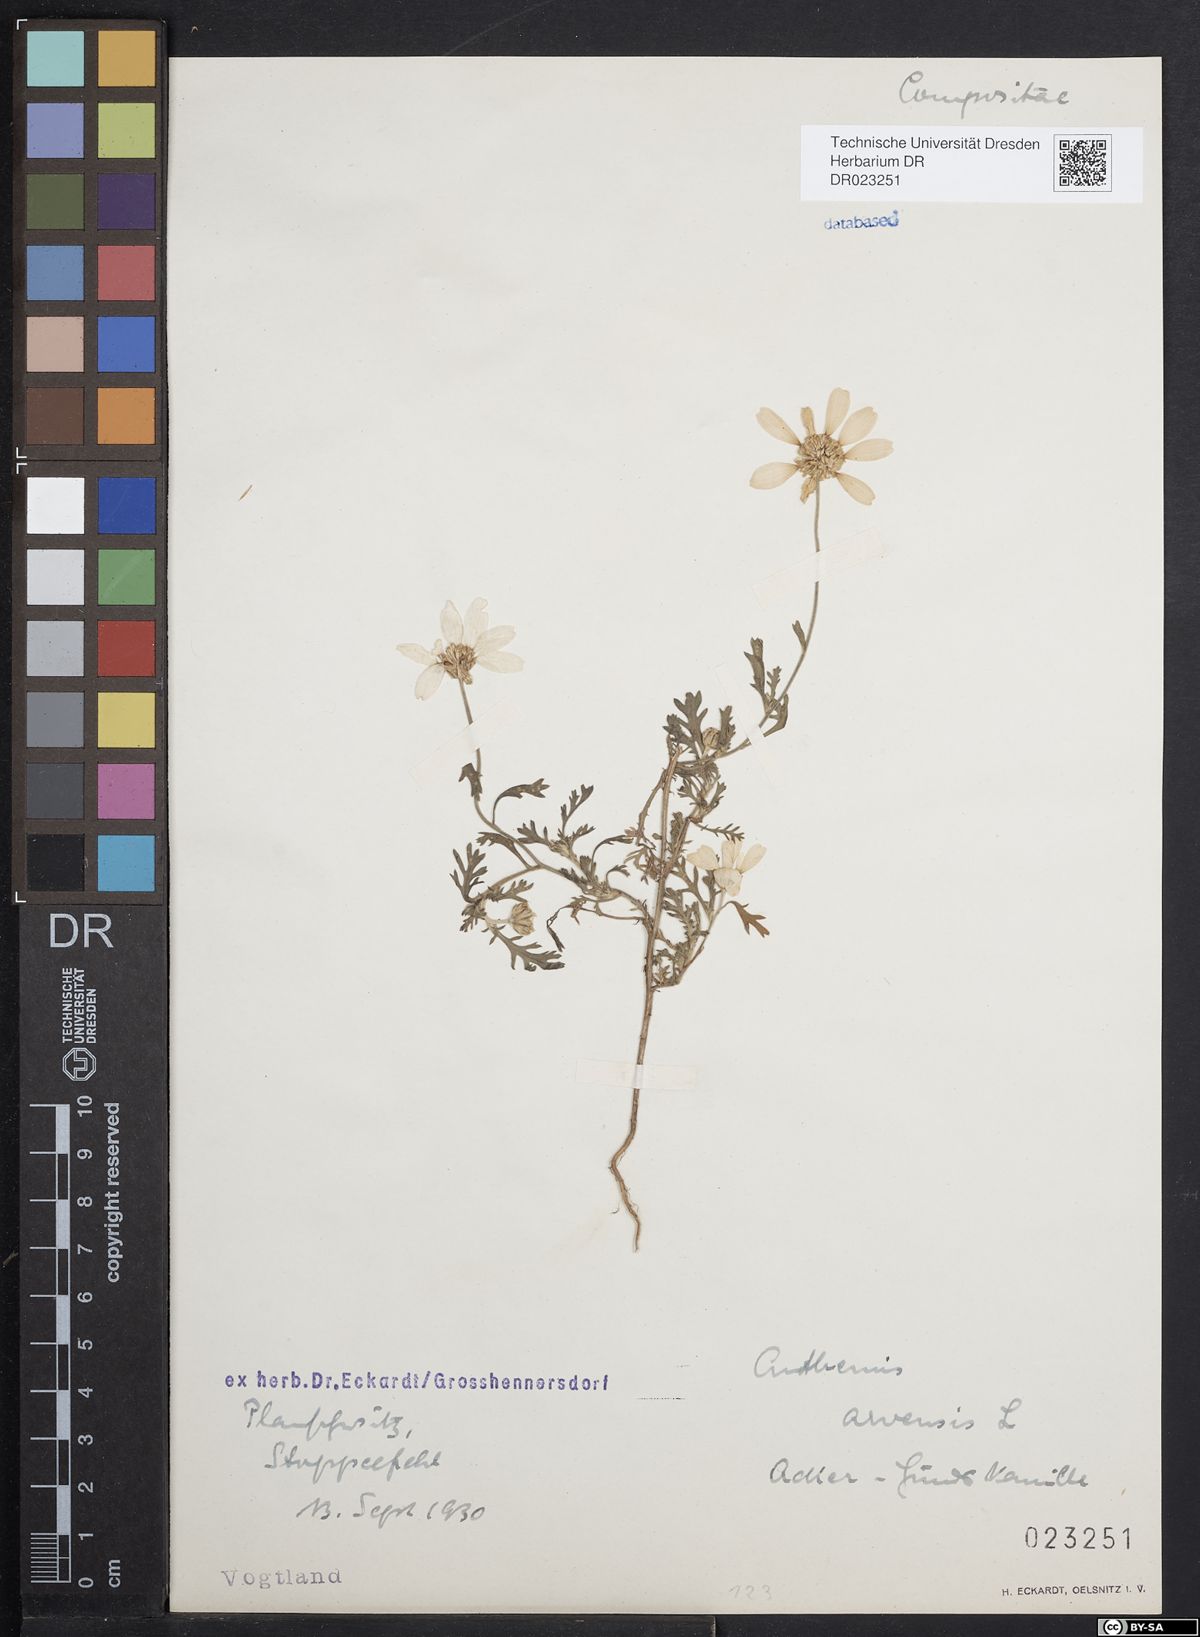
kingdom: Plantae
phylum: Tracheophyta
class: Magnoliopsida
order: Asterales
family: Asteraceae
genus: Anthemis
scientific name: Anthemis arvensis
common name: Corn chamomile
